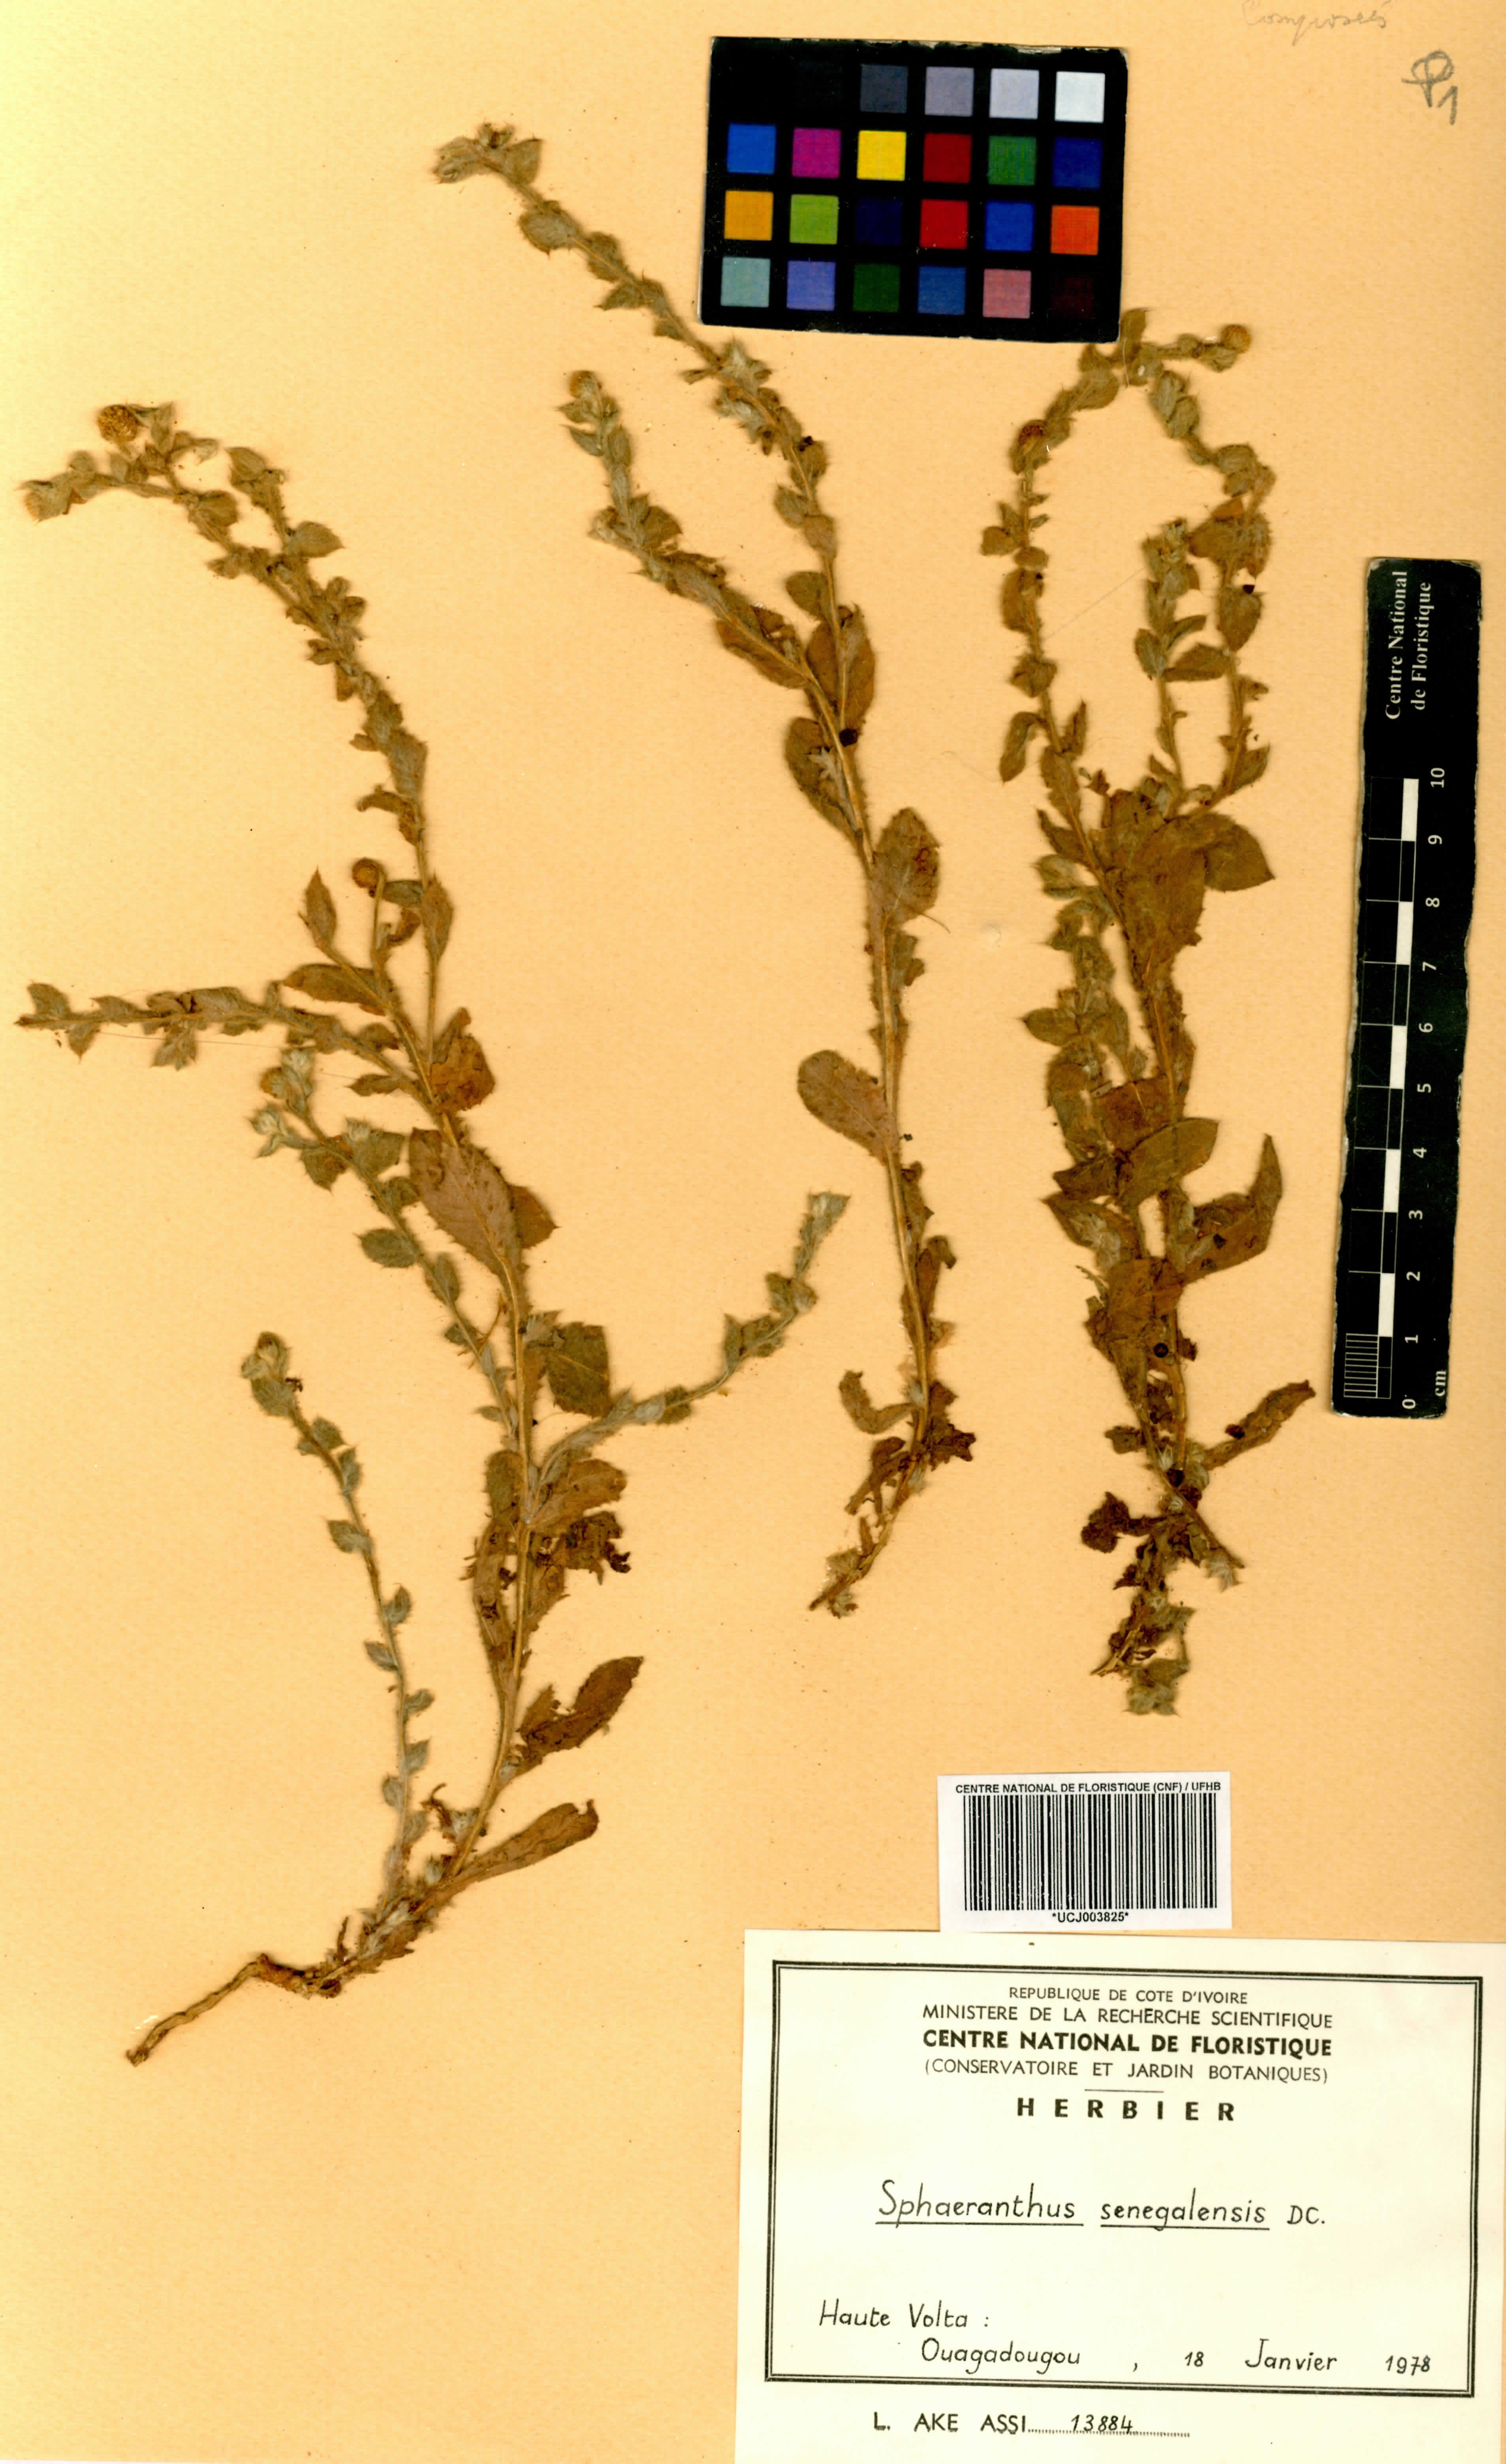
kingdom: Plantae
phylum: Tracheophyta
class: Magnoliopsida
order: Asterales
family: Asteraceae
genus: Sphaeranthus
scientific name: Sphaeranthus senegalensis
